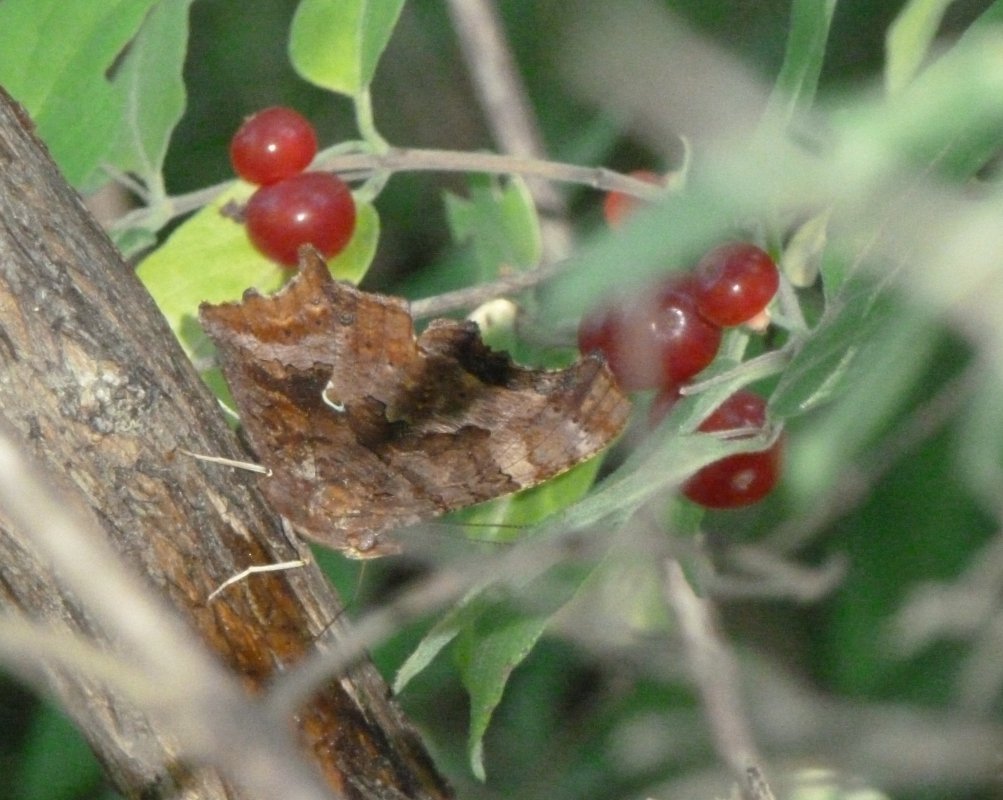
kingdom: Animalia
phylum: Arthropoda
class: Insecta
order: Lepidoptera
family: Nymphalidae
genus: Polygonia
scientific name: Polygonia comma
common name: Eastern Comma
